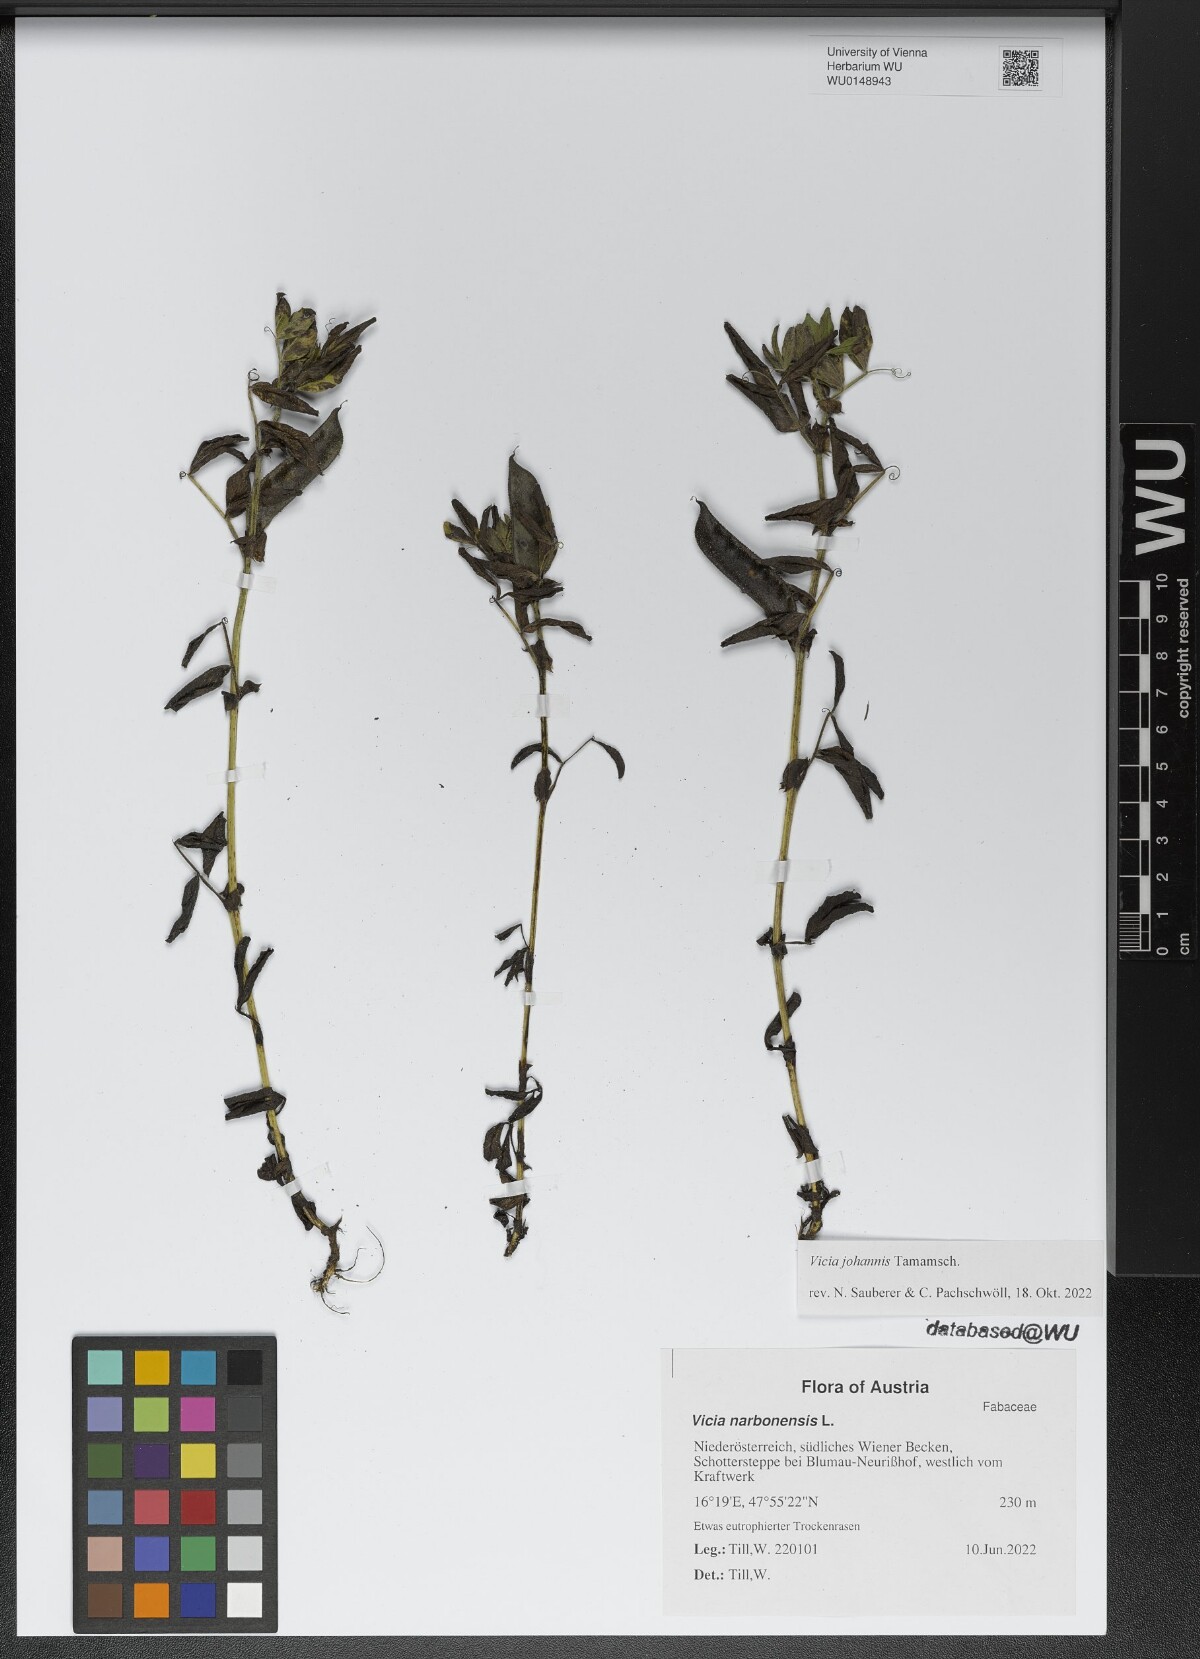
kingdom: Plantae
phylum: Tracheophyta
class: Magnoliopsida
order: Fabales
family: Fabaceae
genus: Vicia
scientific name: Vicia johannis
